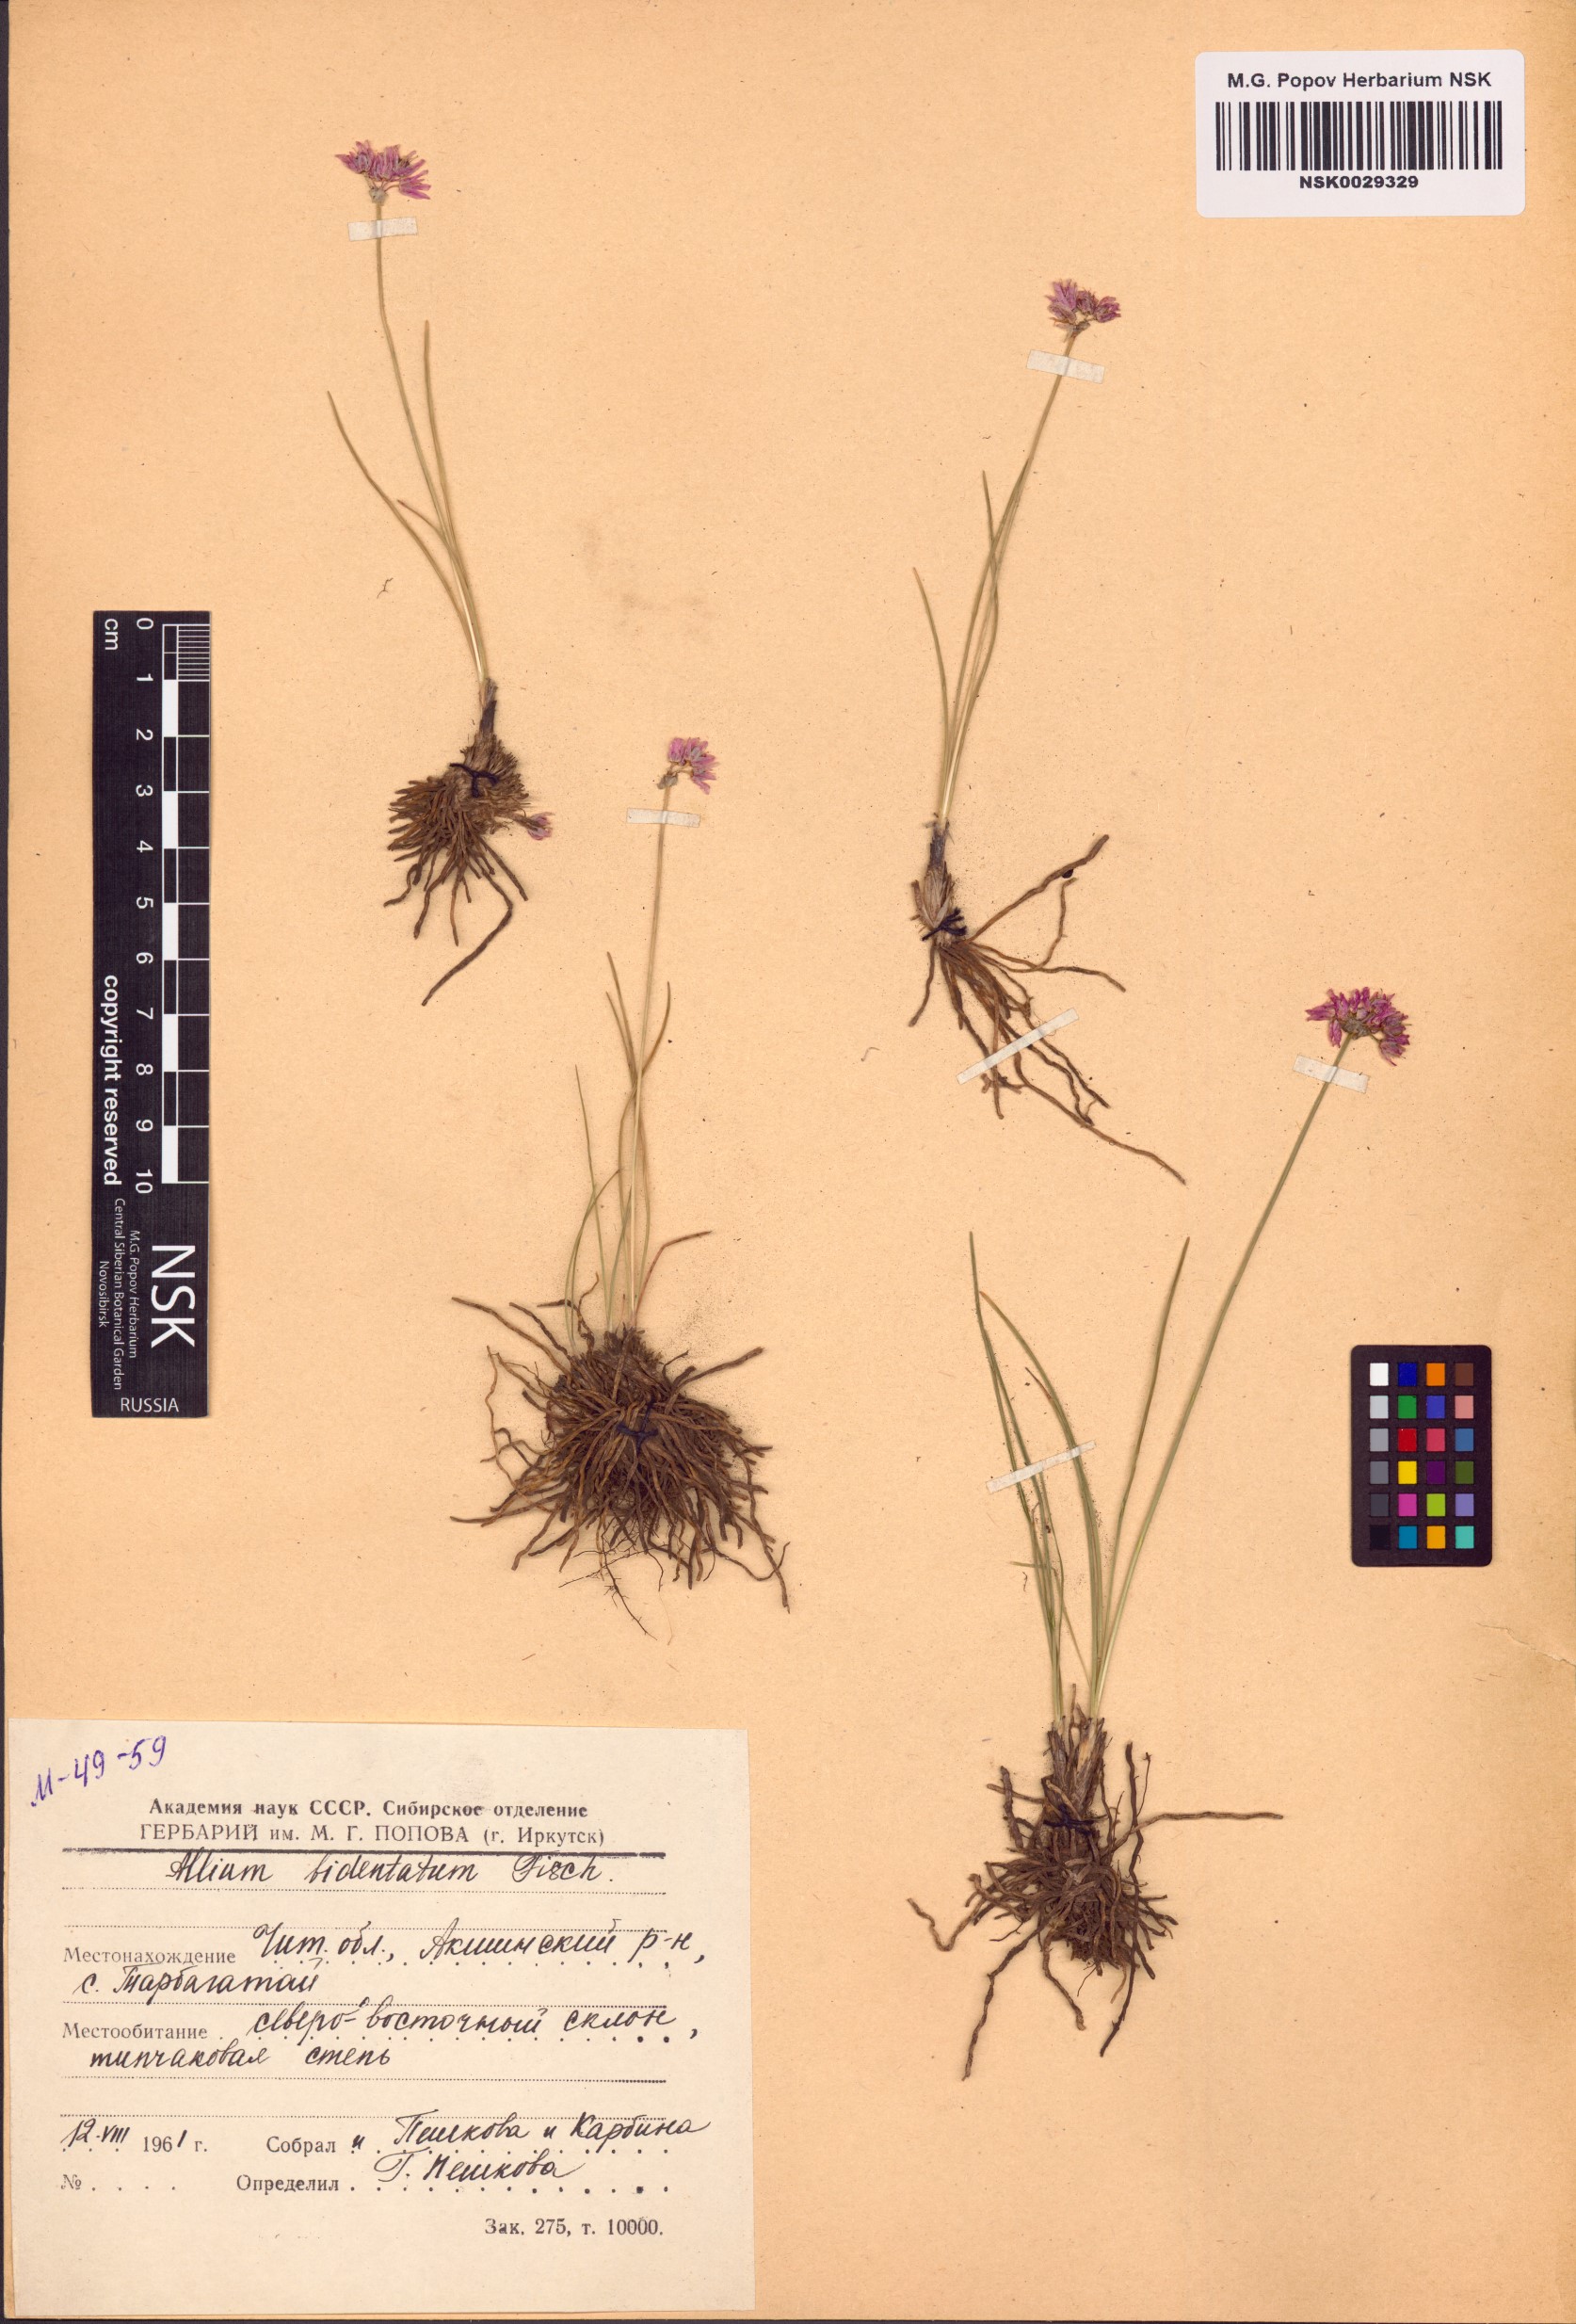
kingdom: Plantae
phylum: Tracheophyta
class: Liliopsida
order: Asparagales
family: Amaryllidaceae
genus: Allium
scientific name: Allium bidentatum
